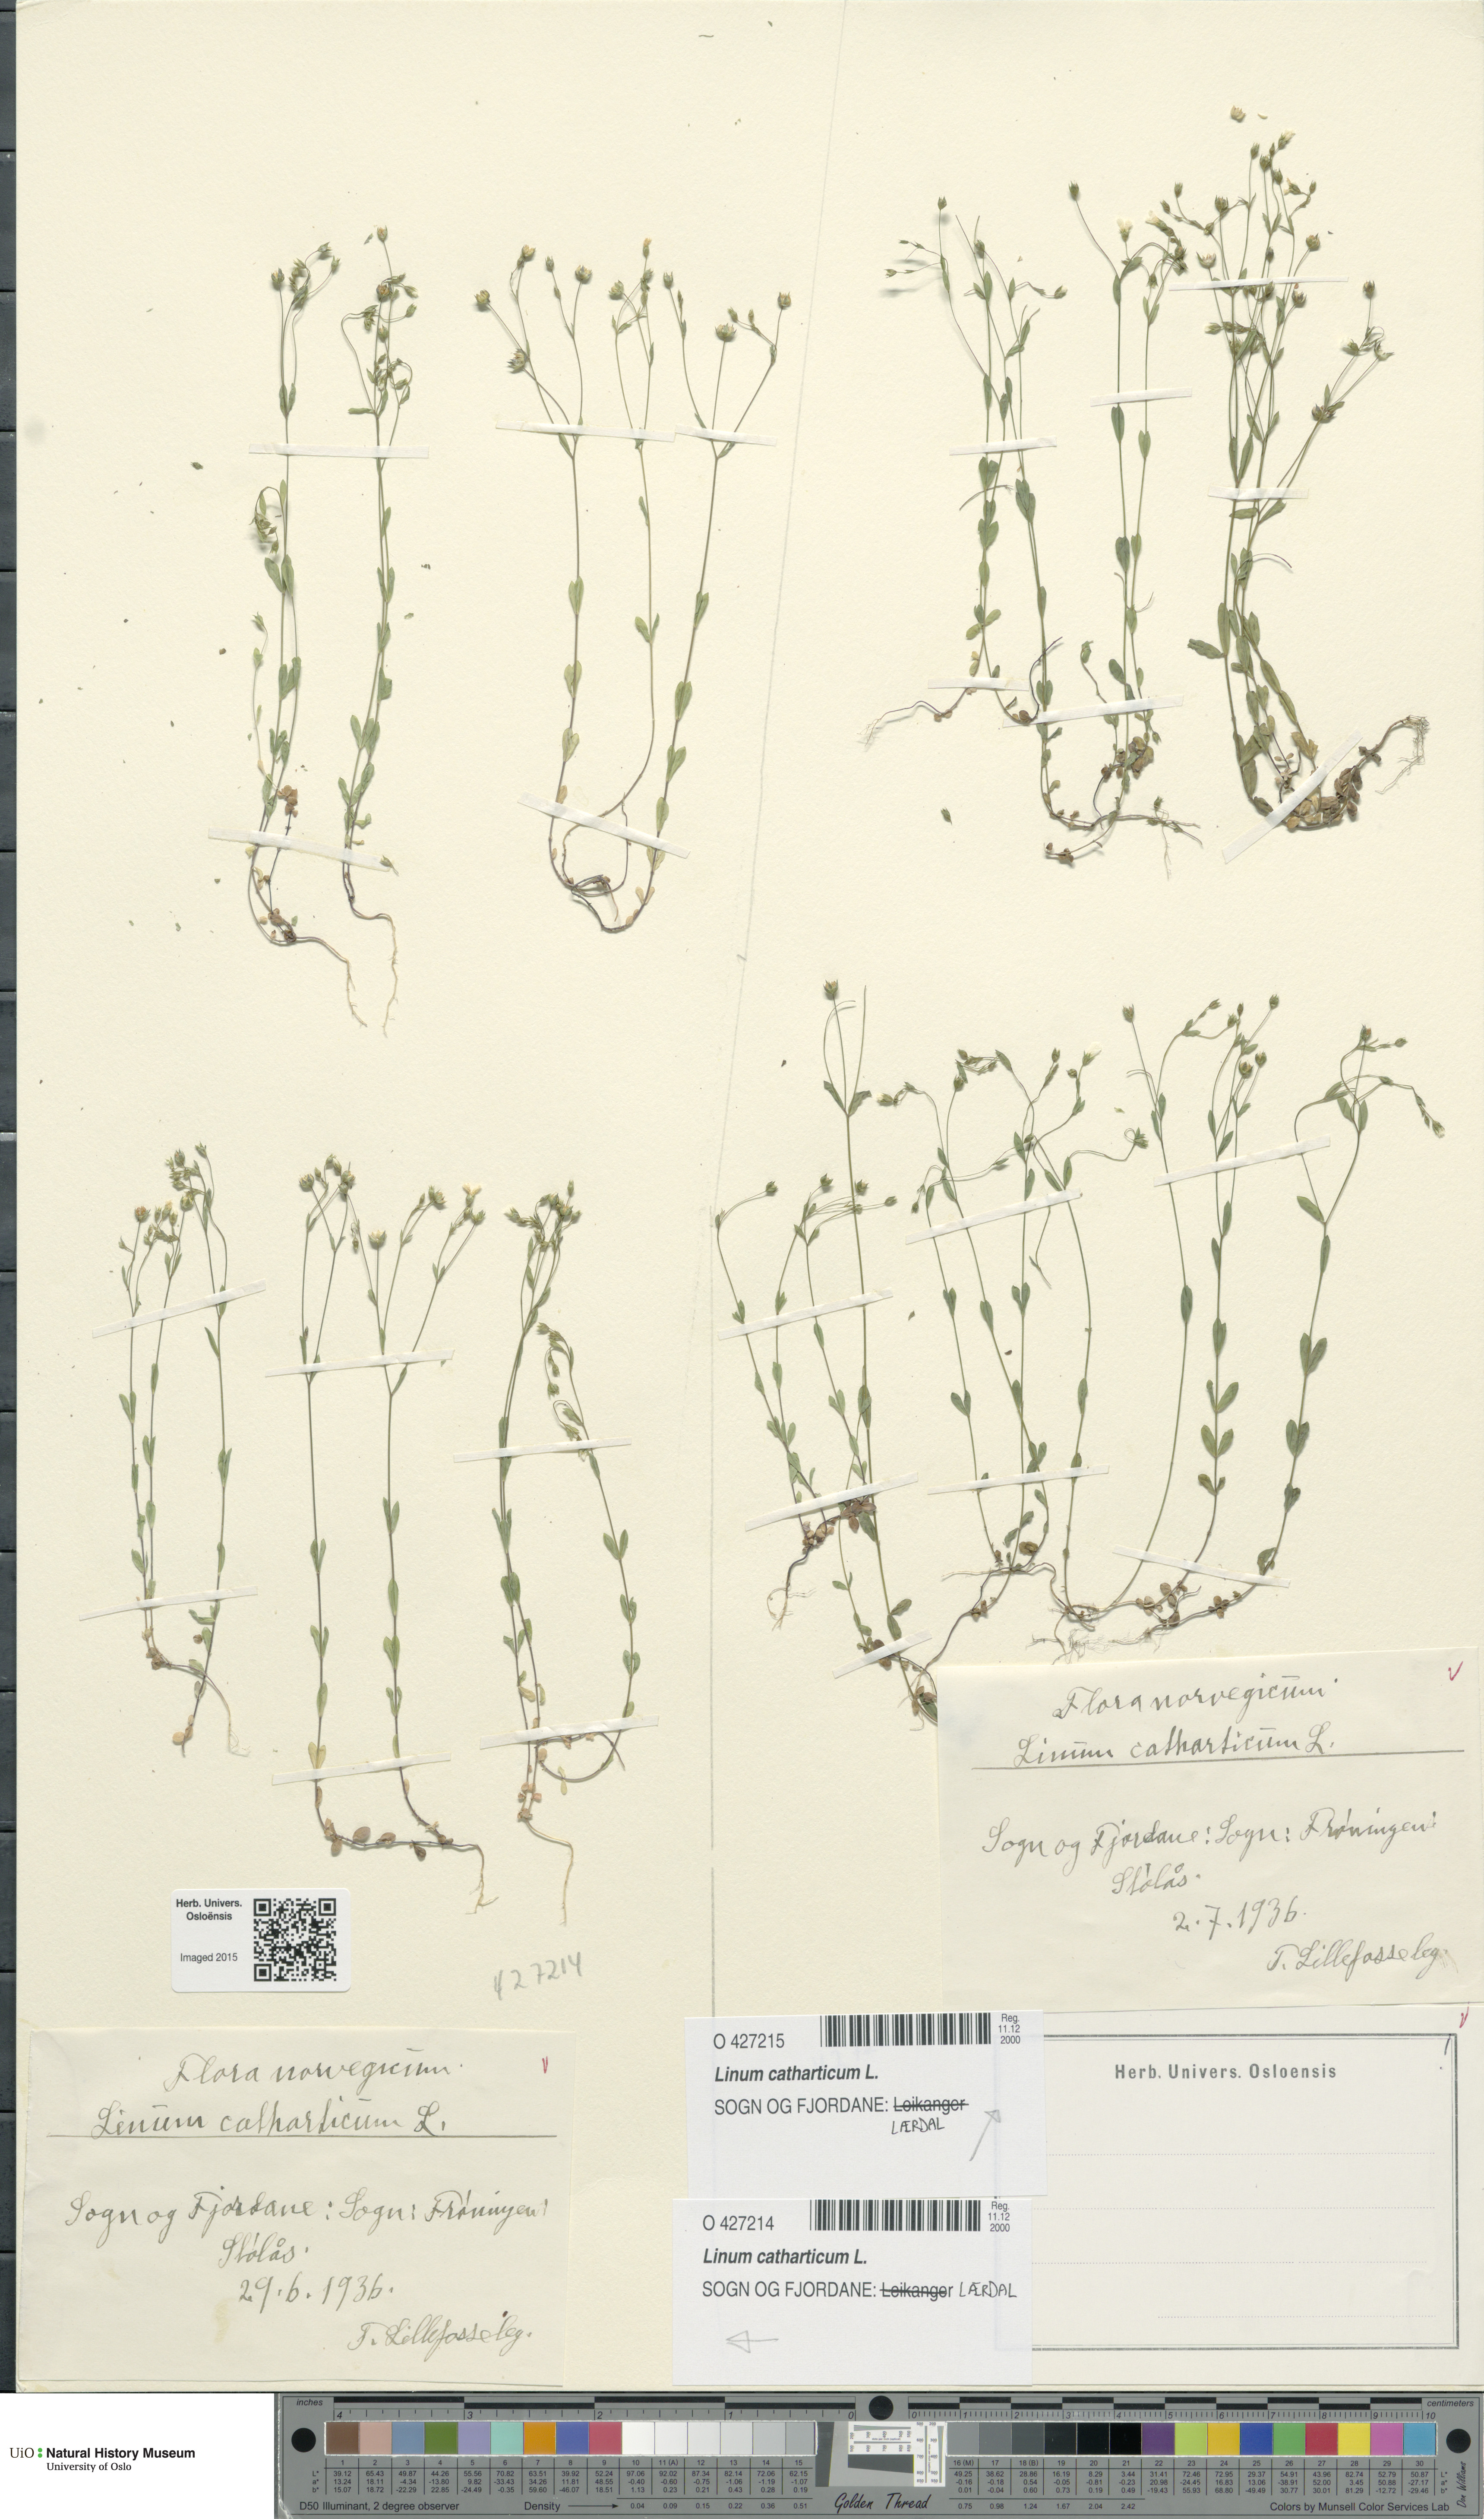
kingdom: Plantae
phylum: Tracheophyta
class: Magnoliopsida
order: Malpighiales
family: Linaceae
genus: Linum
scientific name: Linum catharticum
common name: Fairy flax
